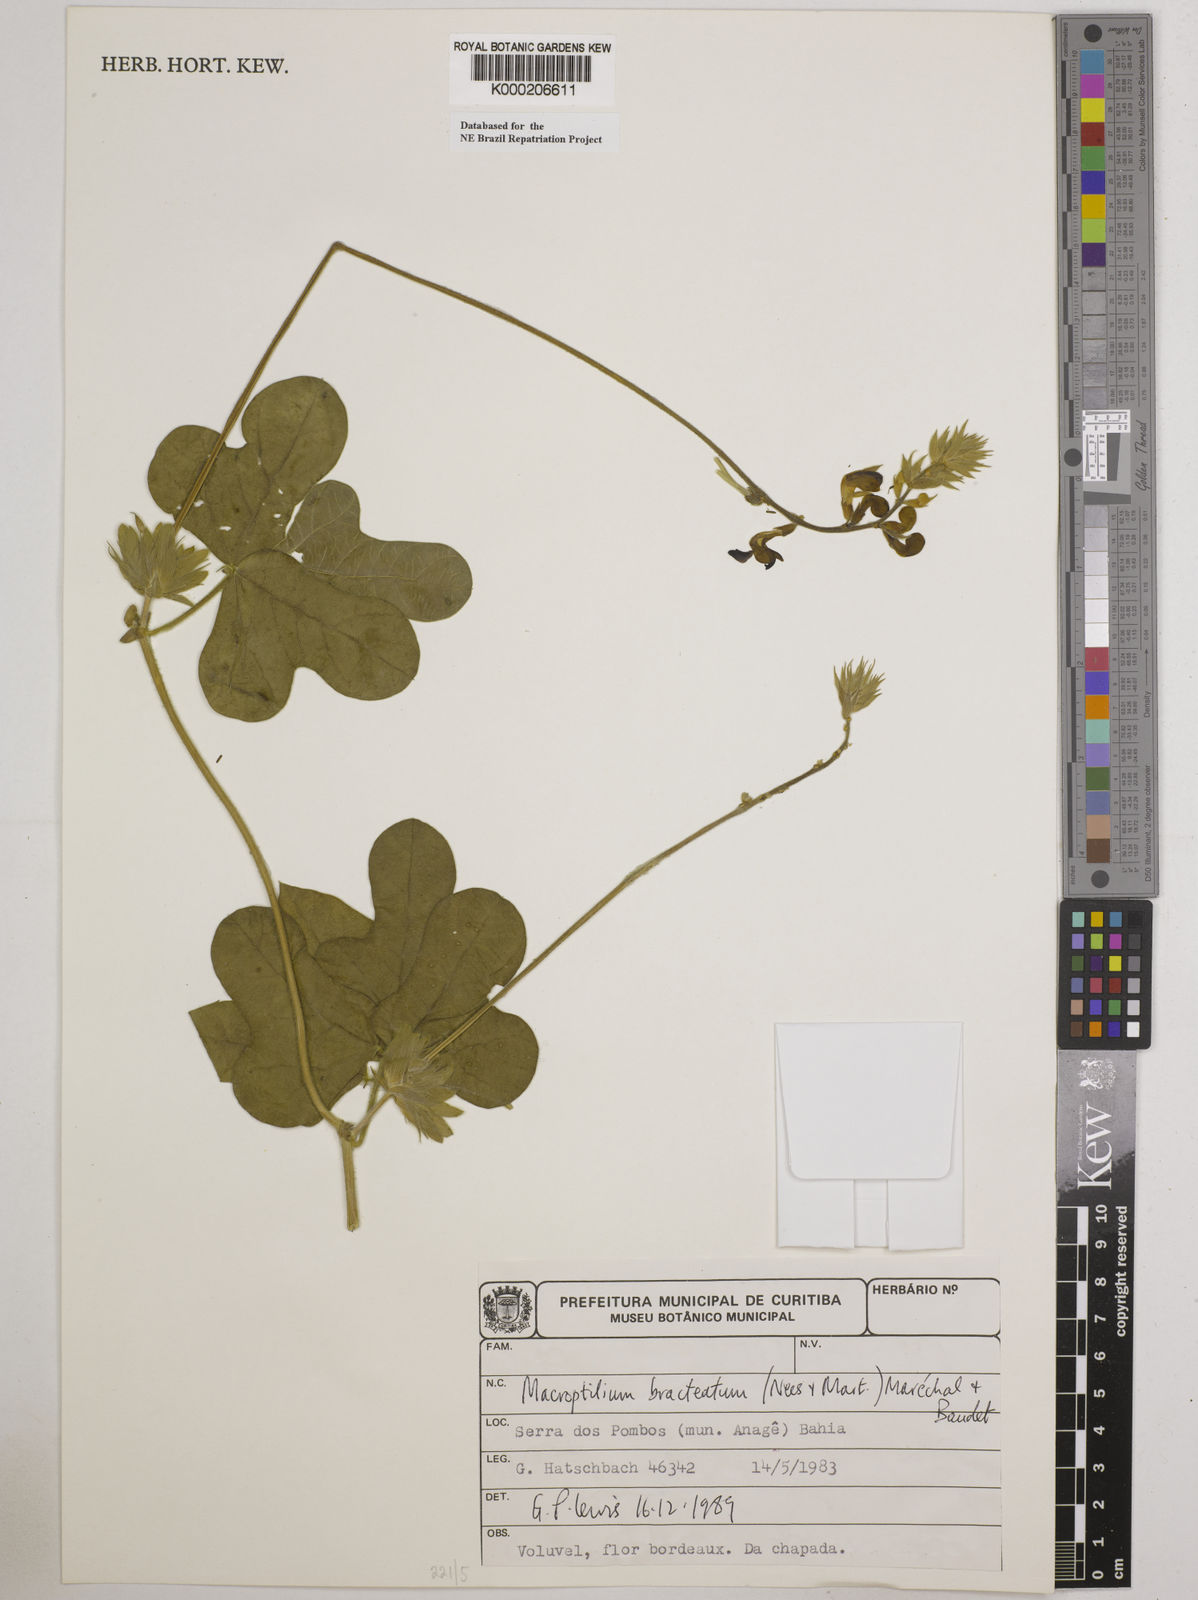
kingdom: Plantae
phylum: Tracheophyta
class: Magnoliopsida
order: Fabales
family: Fabaceae
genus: Macroptilium
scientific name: Macroptilium
